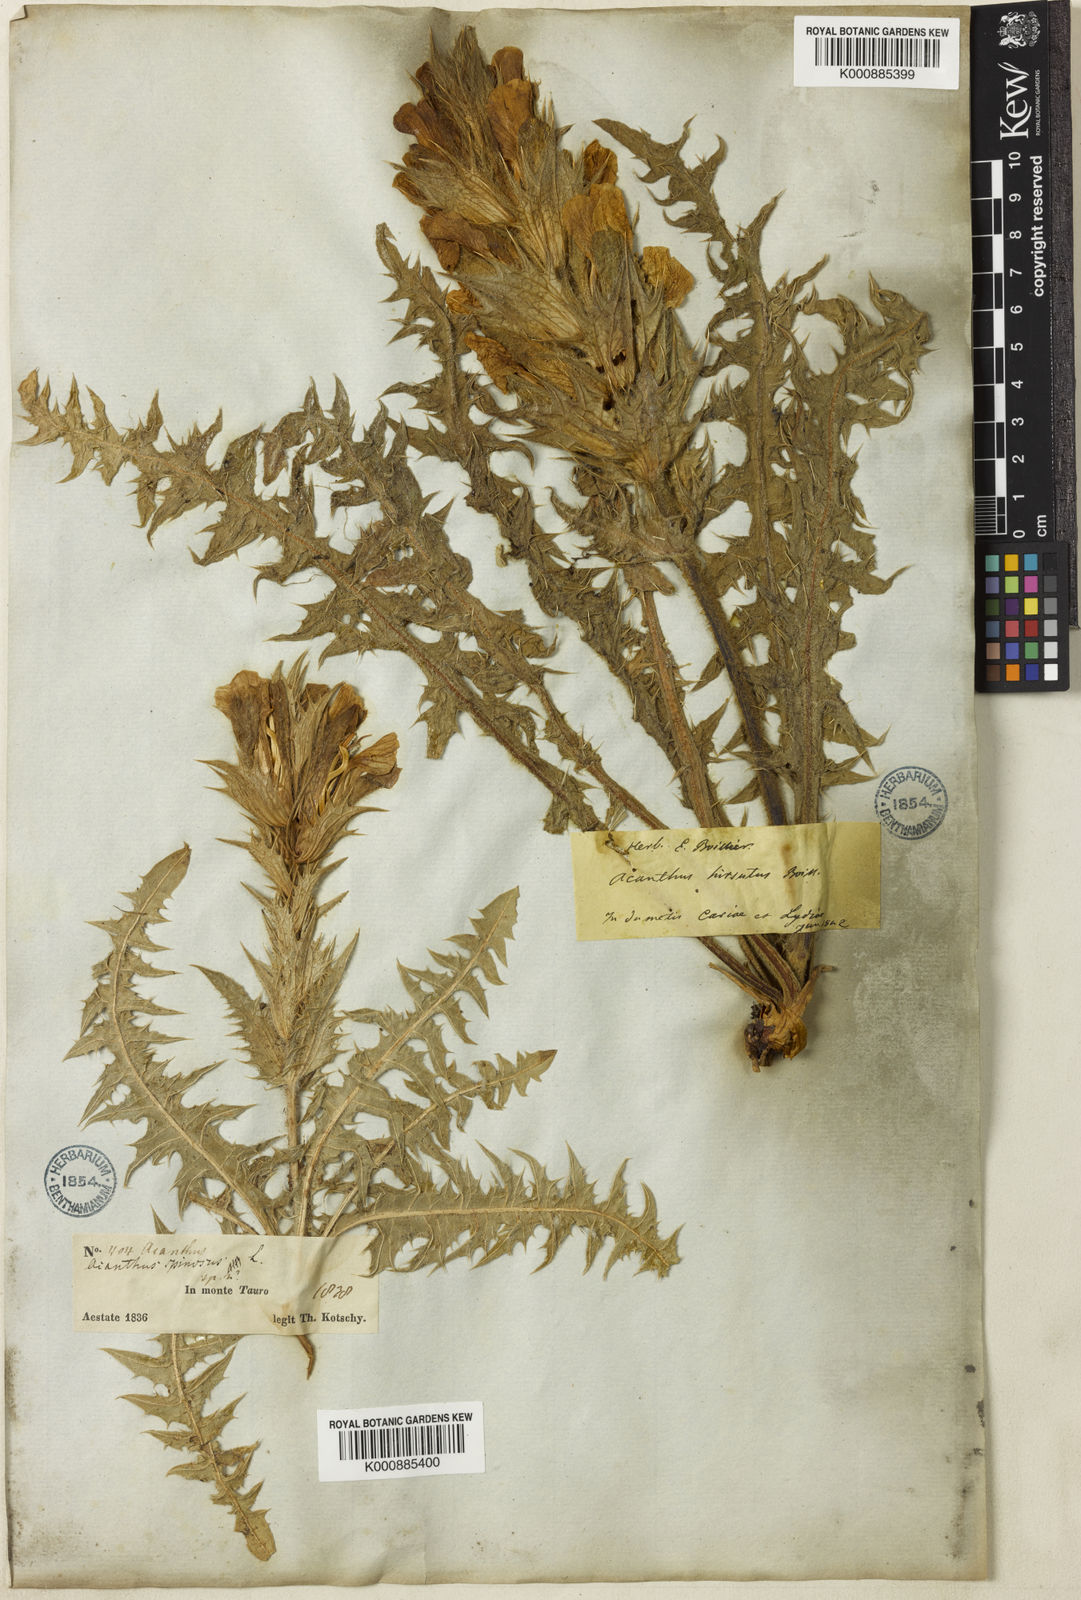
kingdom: Plantae
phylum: Tracheophyta
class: Magnoliopsida
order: Lamiales
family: Acanthaceae
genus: Acanthus
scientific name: Acanthus hirsutus
